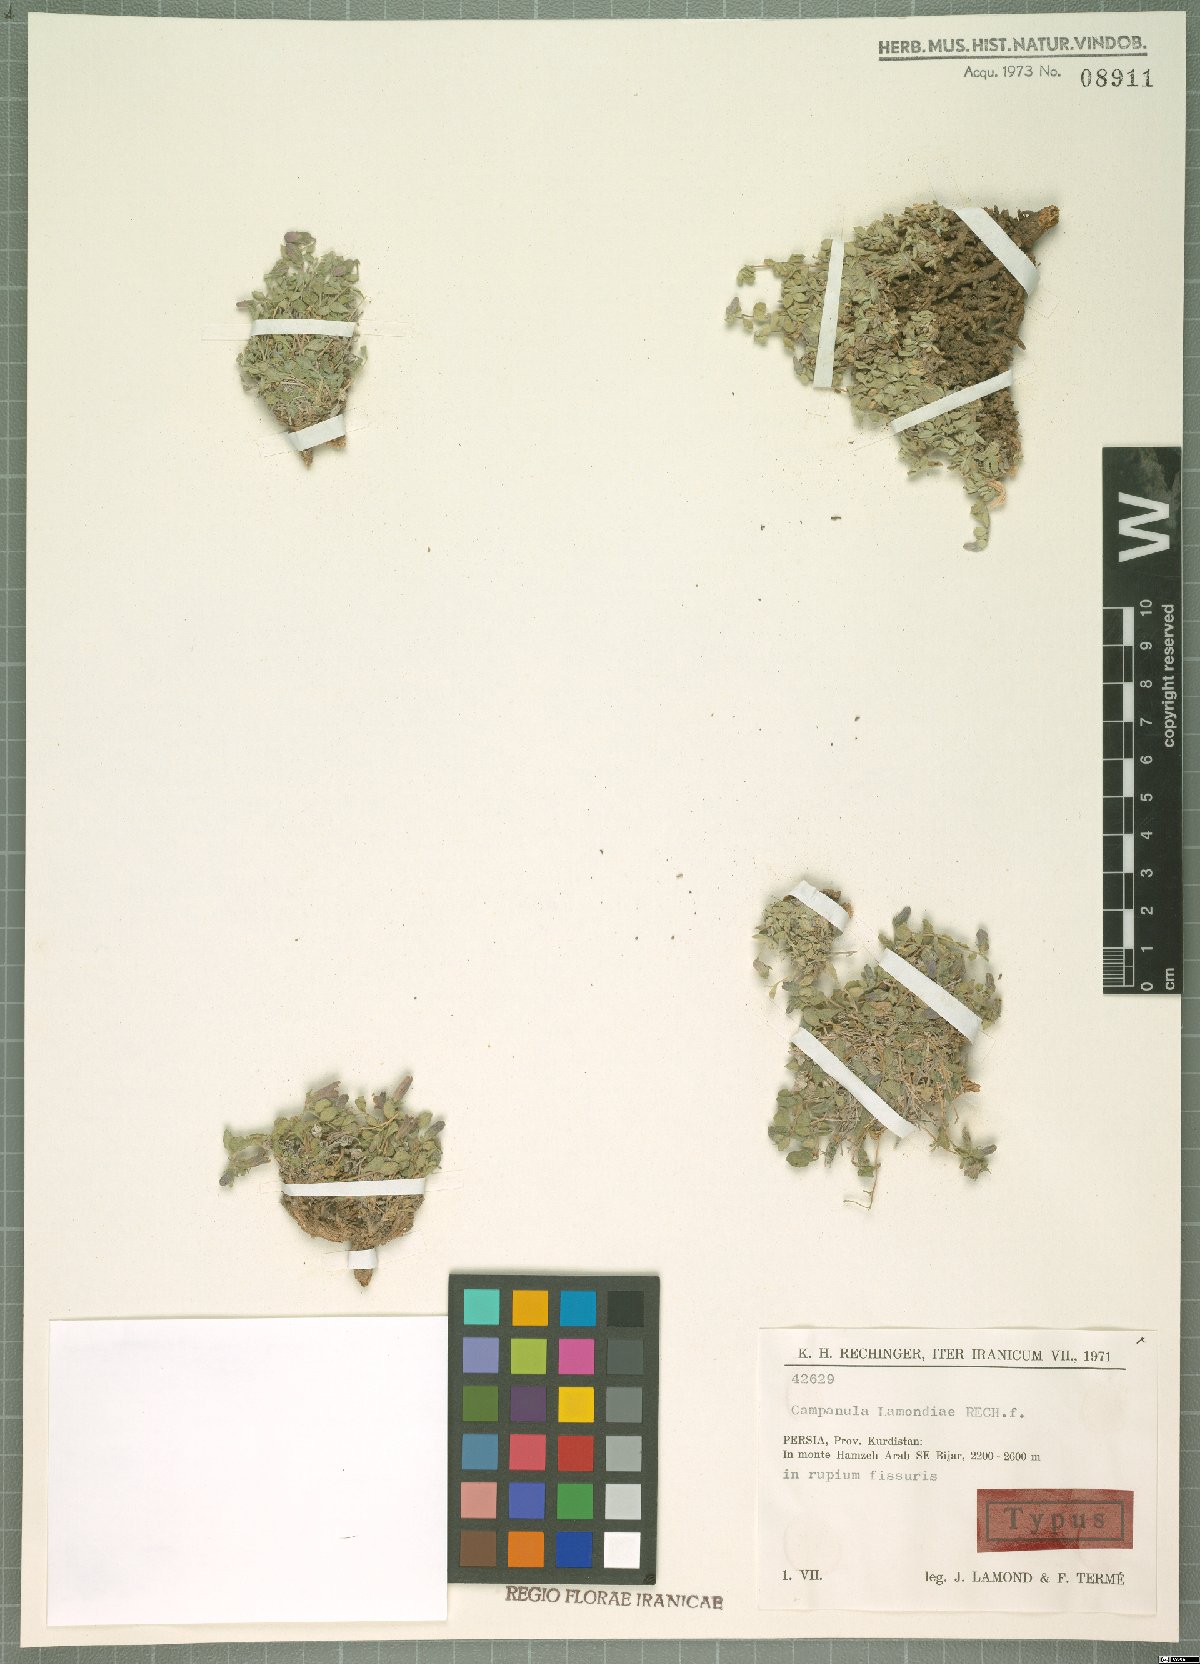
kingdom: Plantae
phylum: Tracheophyta
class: Magnoliopsida
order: Asterales
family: Campanulaceae
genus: Campanula
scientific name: Campanula lamondiae
